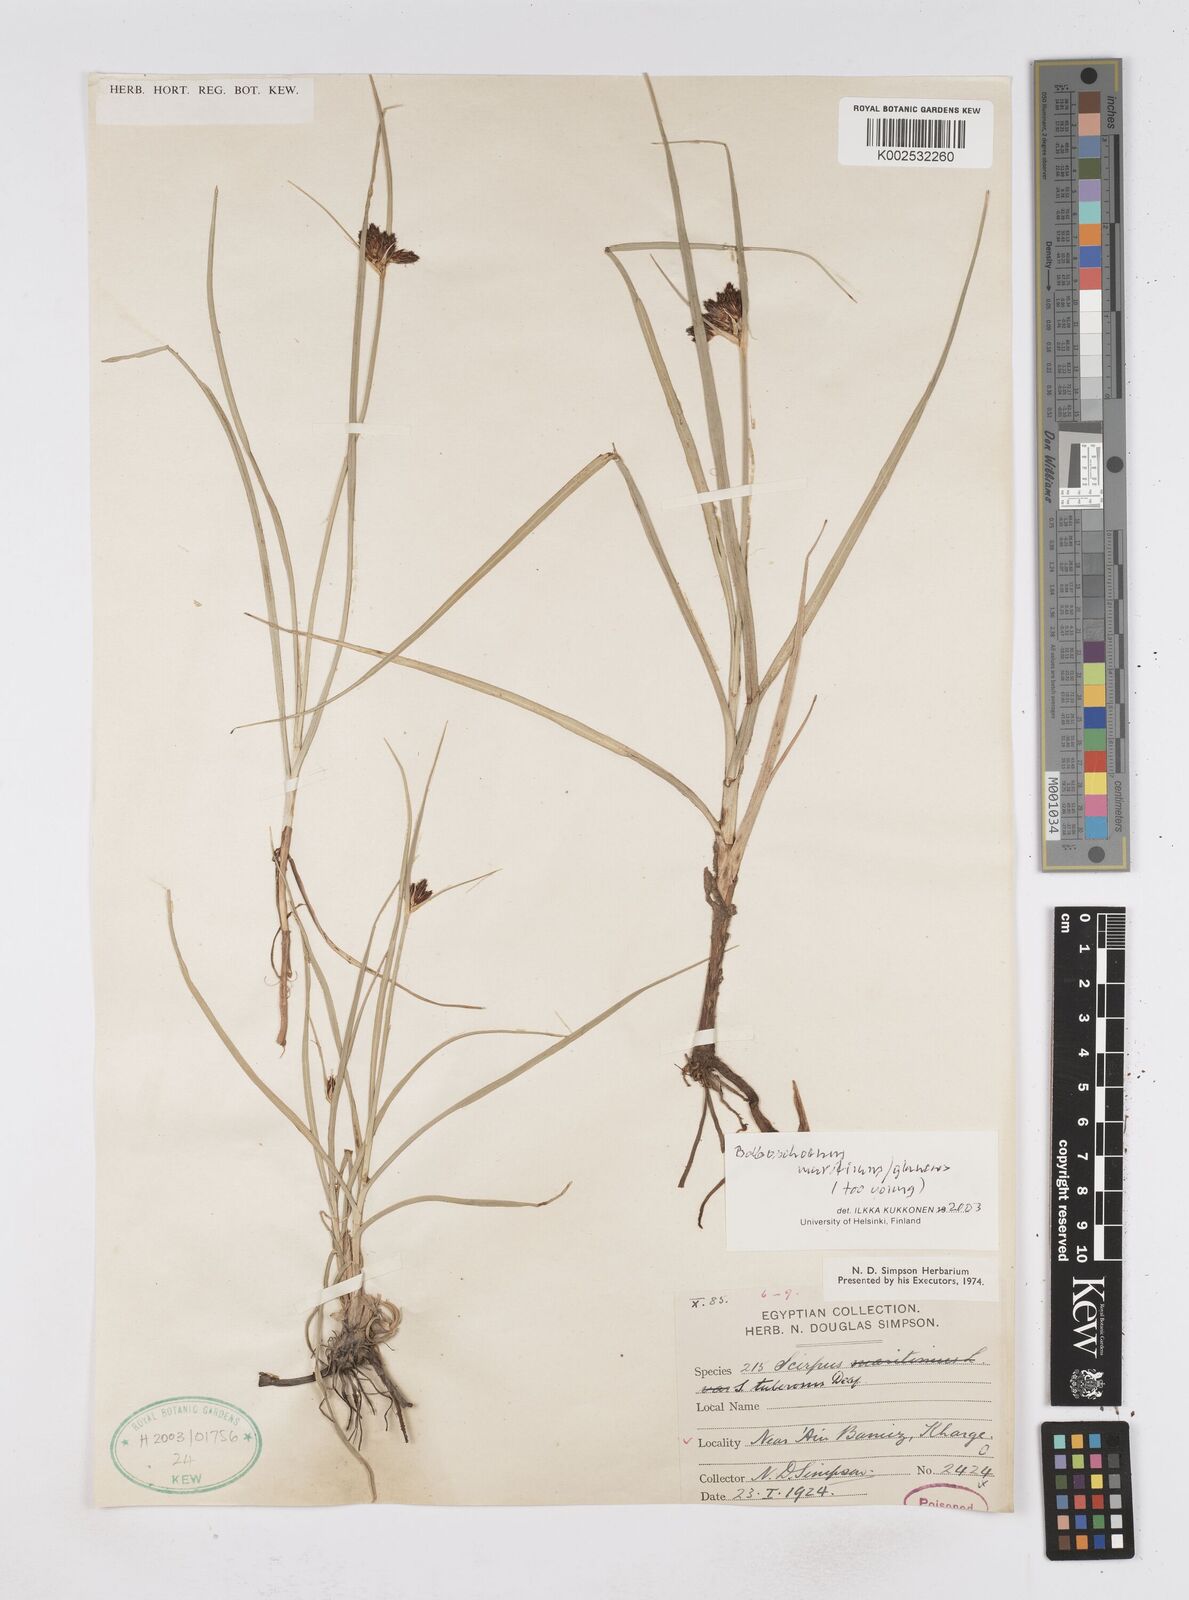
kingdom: Plantae
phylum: Tracheophyta
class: Liliopsida
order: Poales
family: Cyperaceae
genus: Bolboschoenus
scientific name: Bolboschoenus maritimus
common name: Sea club-rush
